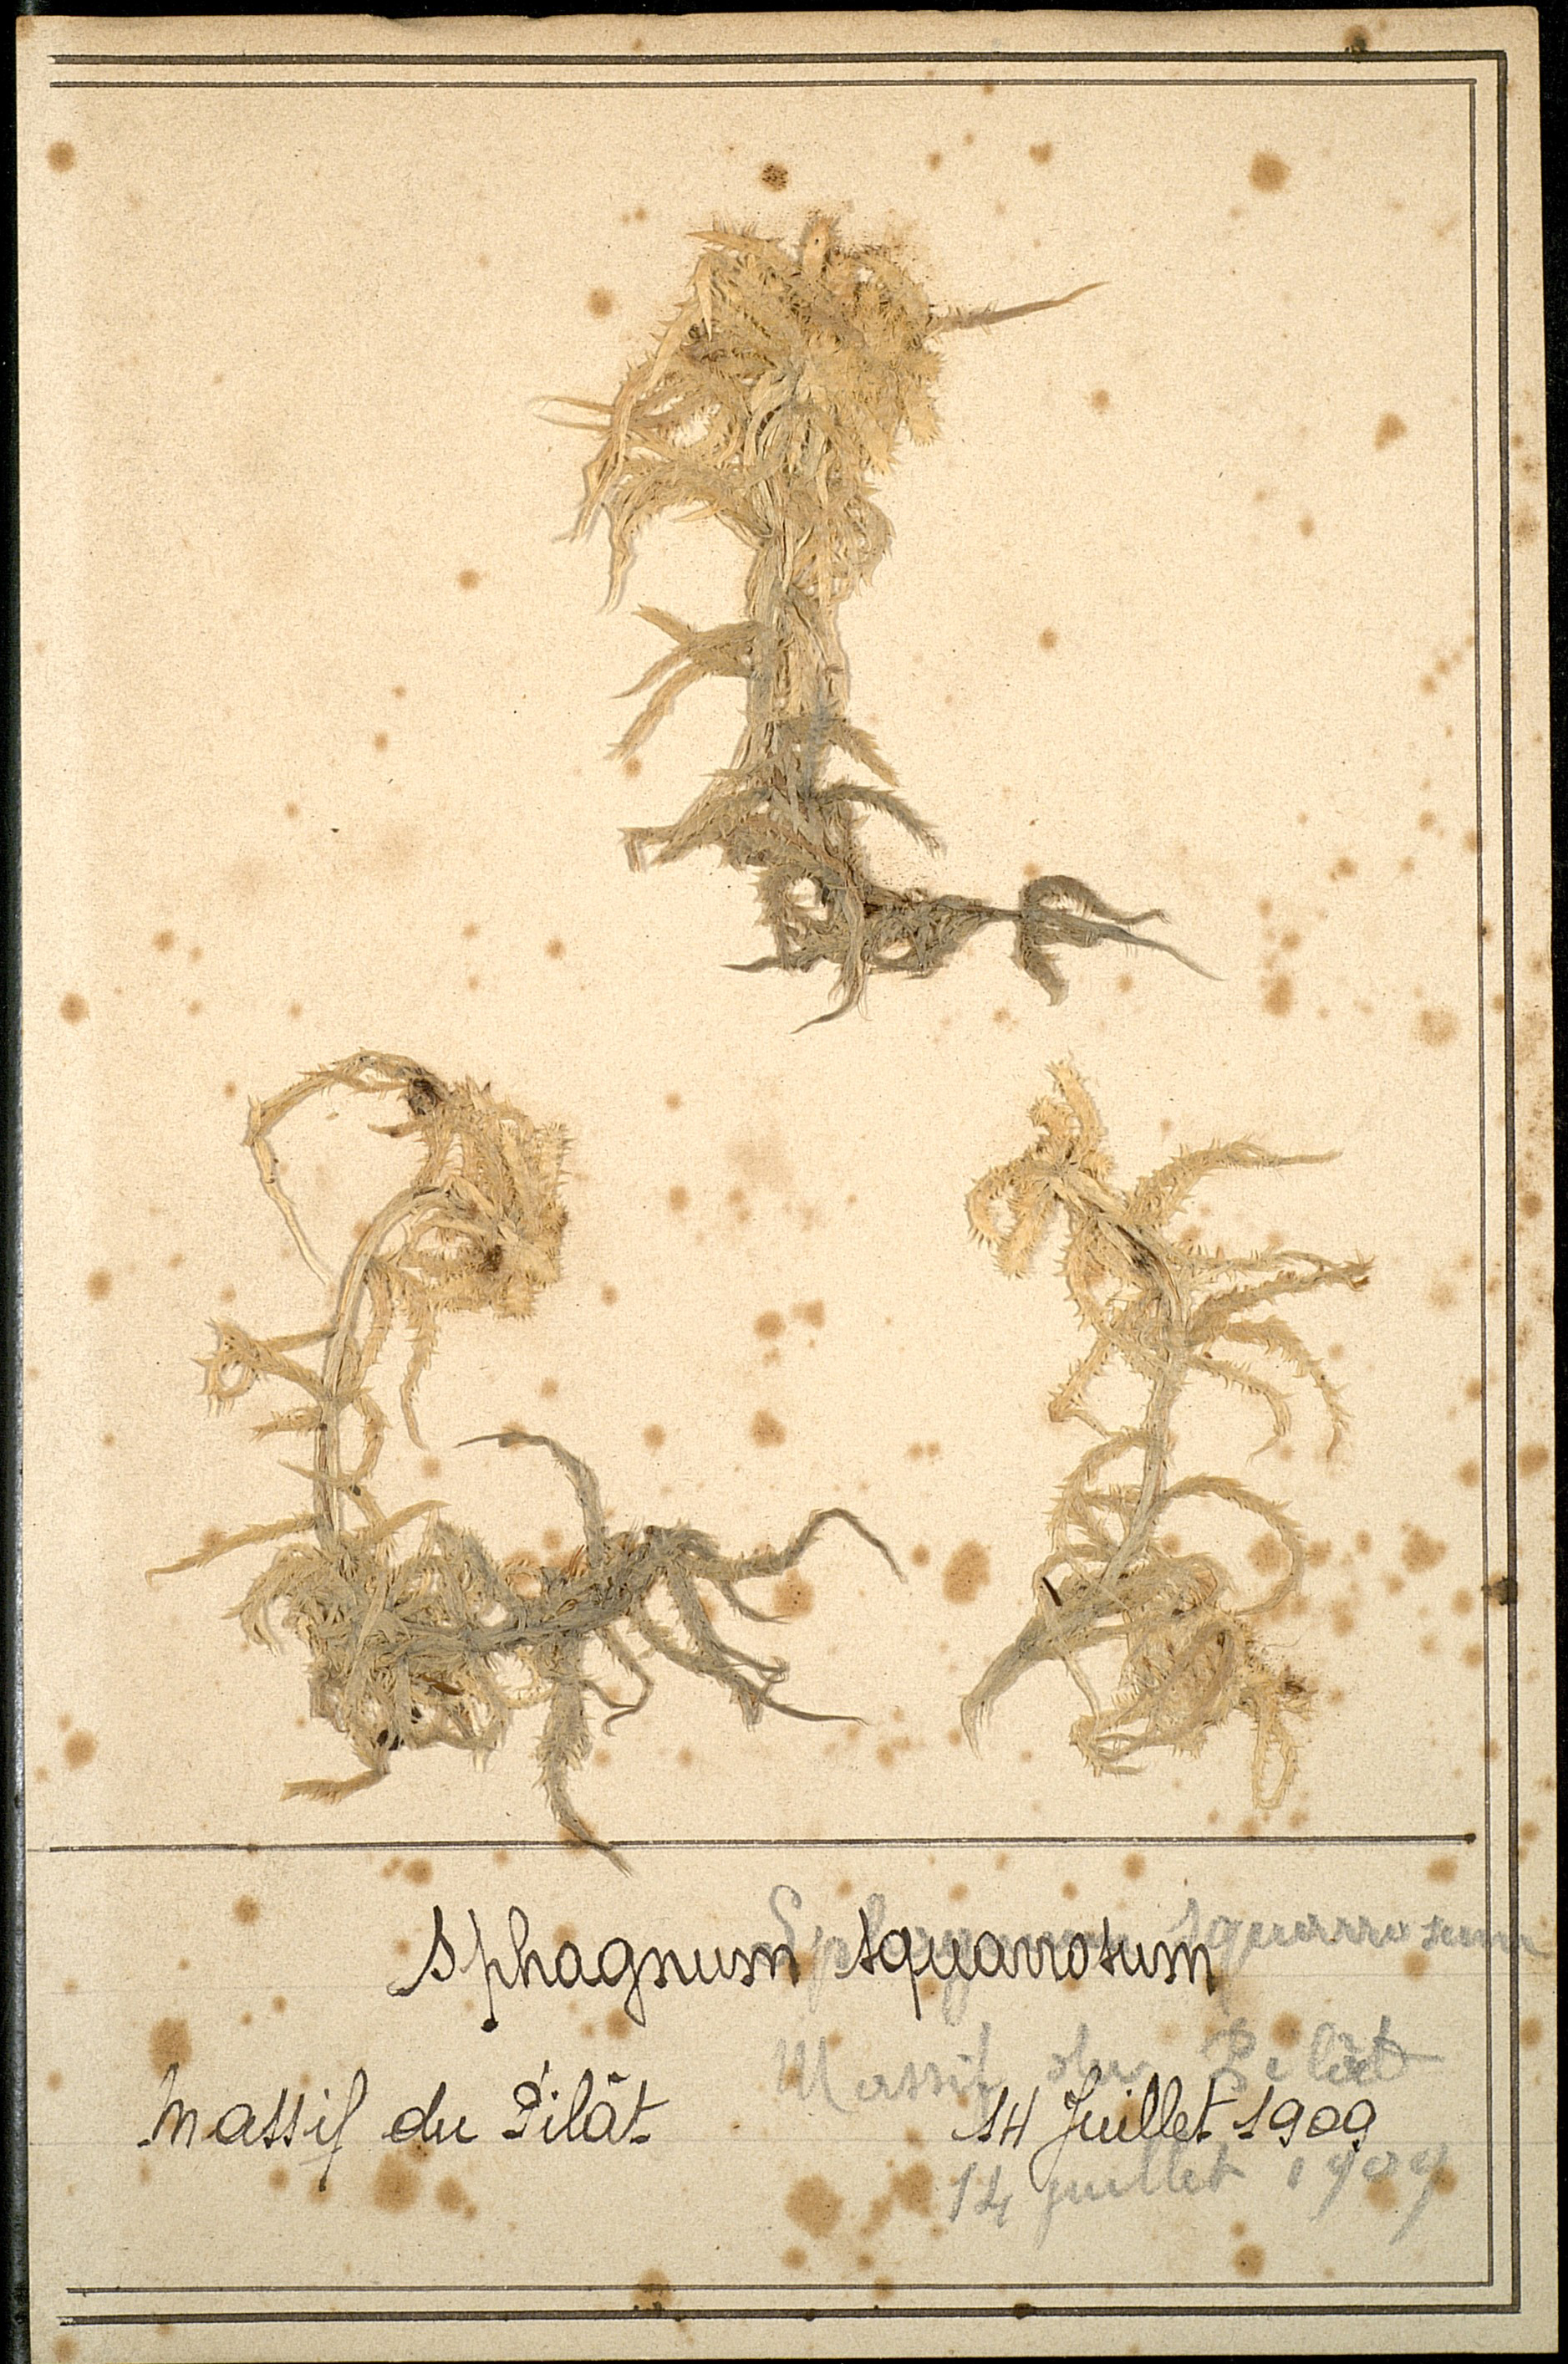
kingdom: Plantae
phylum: Bryophyta
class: Sphagnopsida
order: Sphagnales
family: Sphagnaceae
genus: Sphagnum
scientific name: Sphagnum squarrosum
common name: Shaggy peat moss
